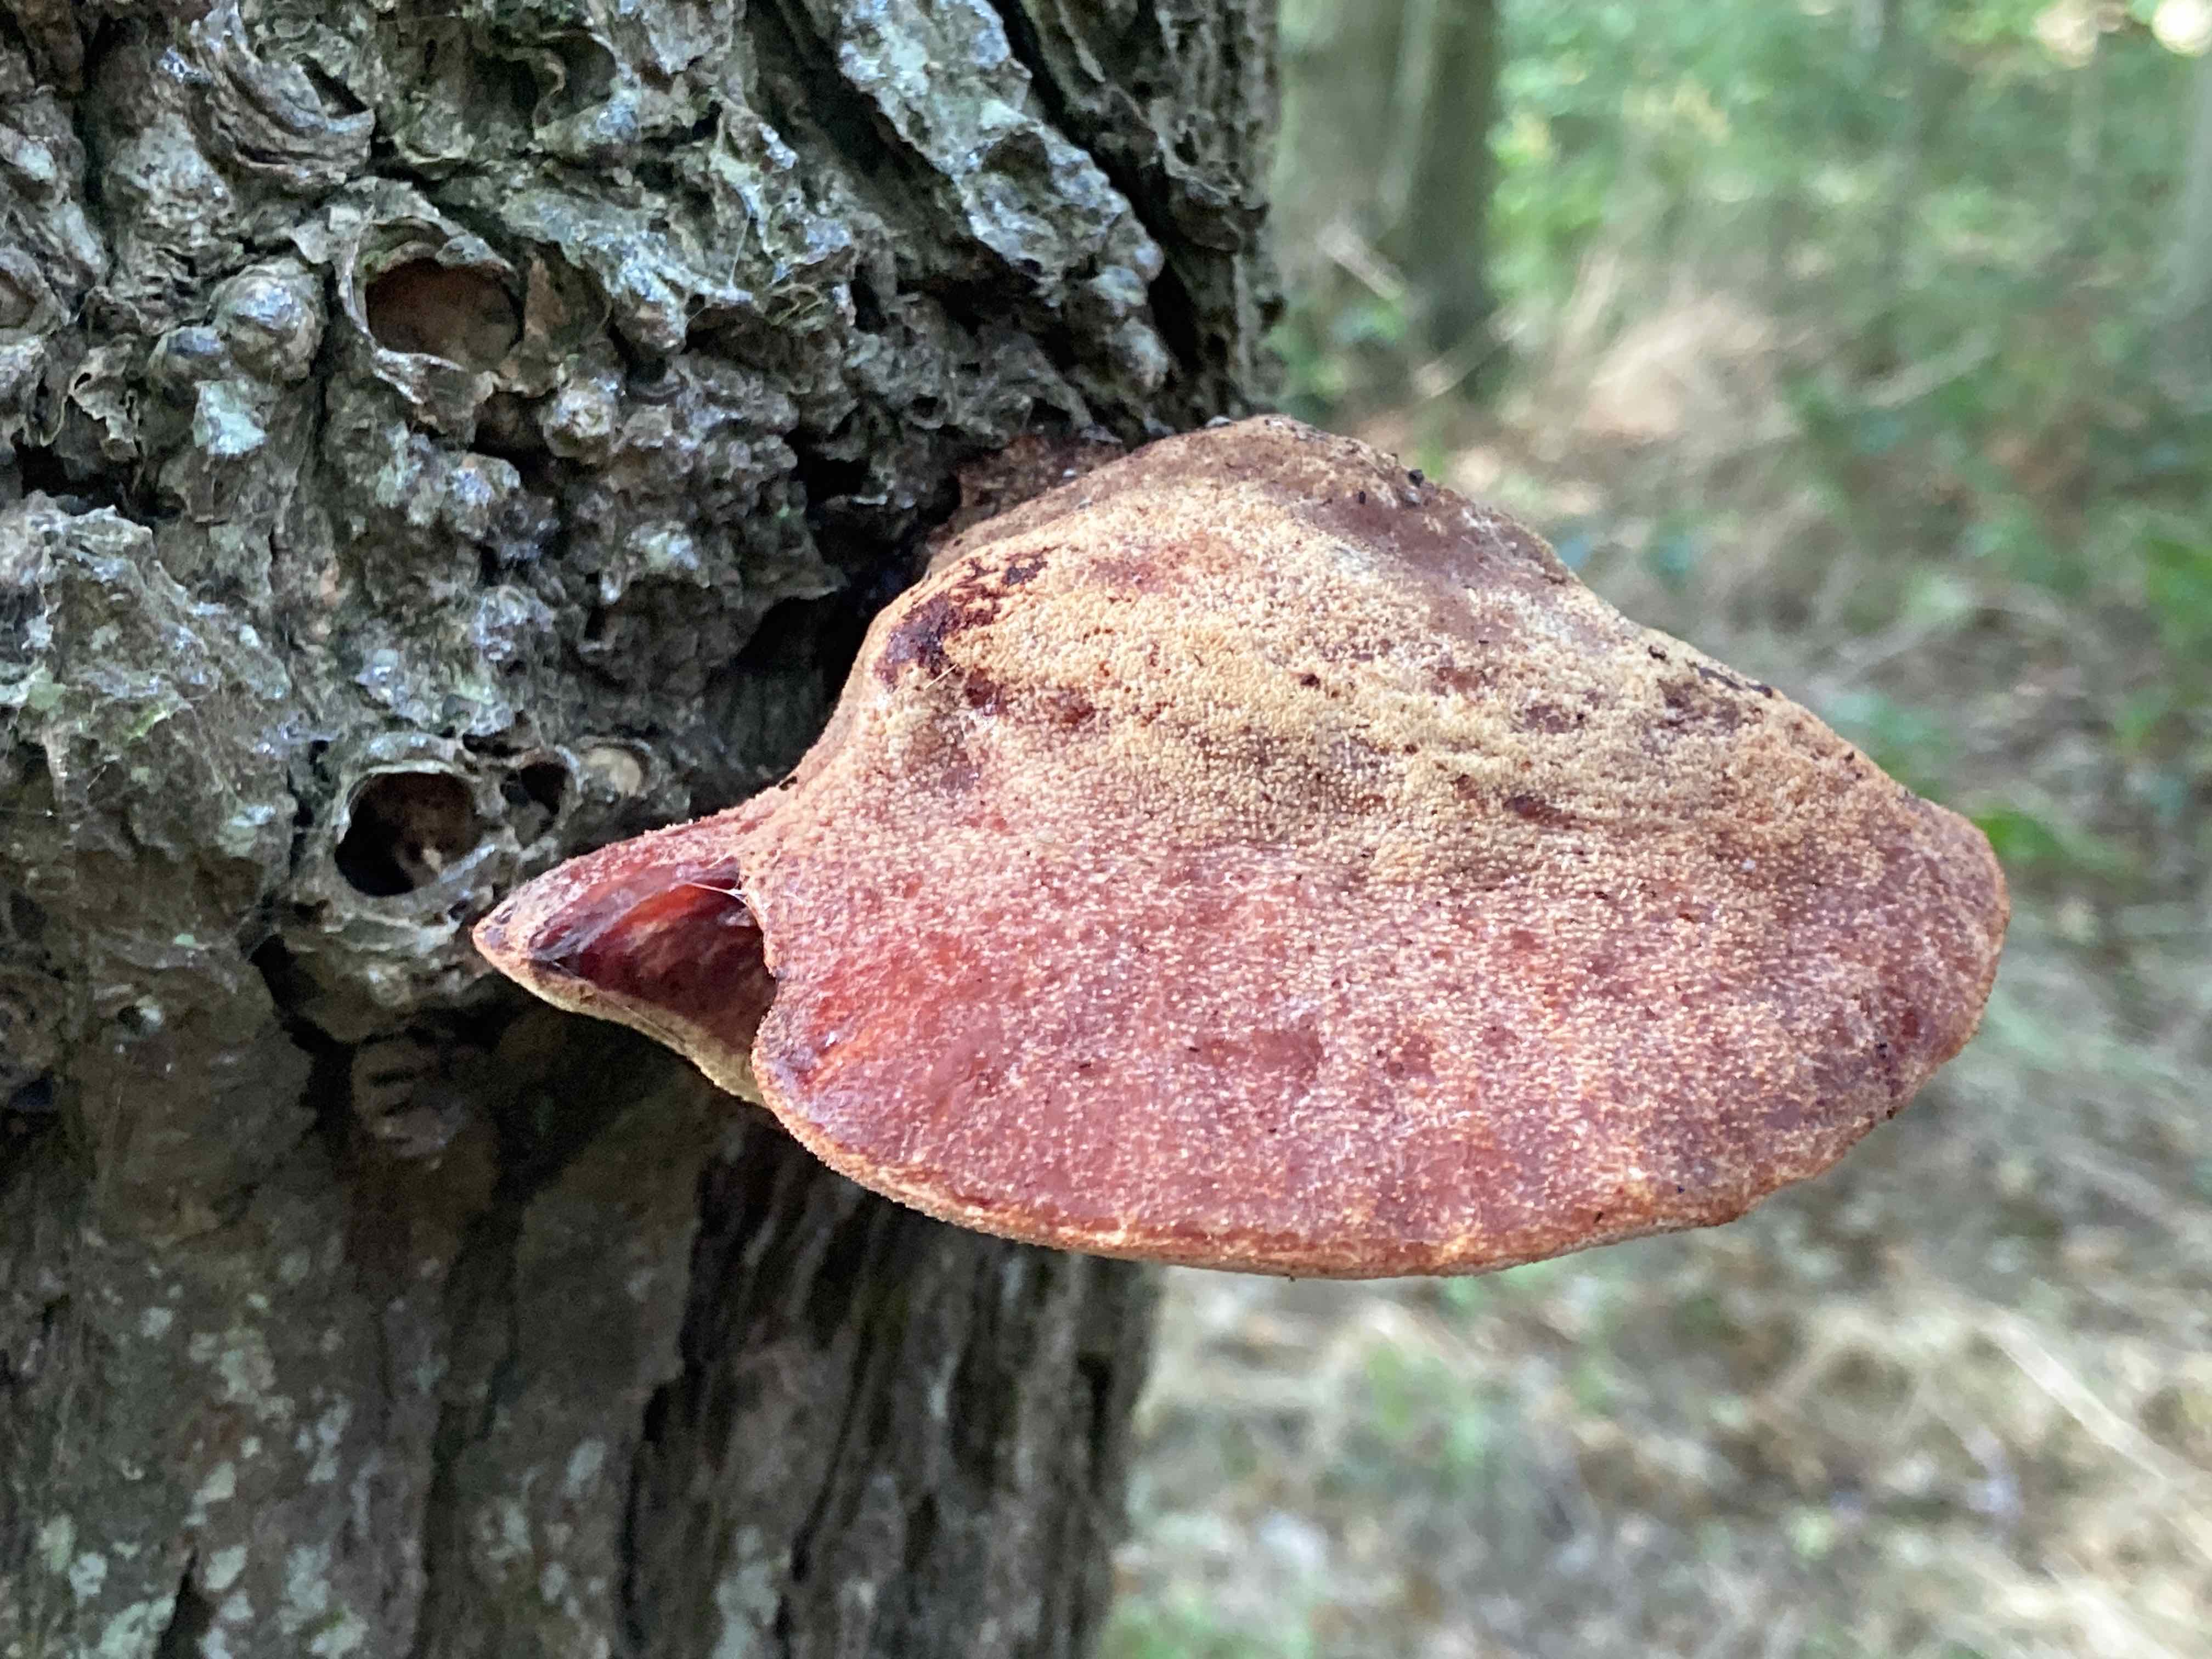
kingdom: Fungi
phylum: Basidiomycota
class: Agaricomycetes
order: Agaricales
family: Fistulinaceae
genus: Fistulina
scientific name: Fistulina hepatica
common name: oksetunge
